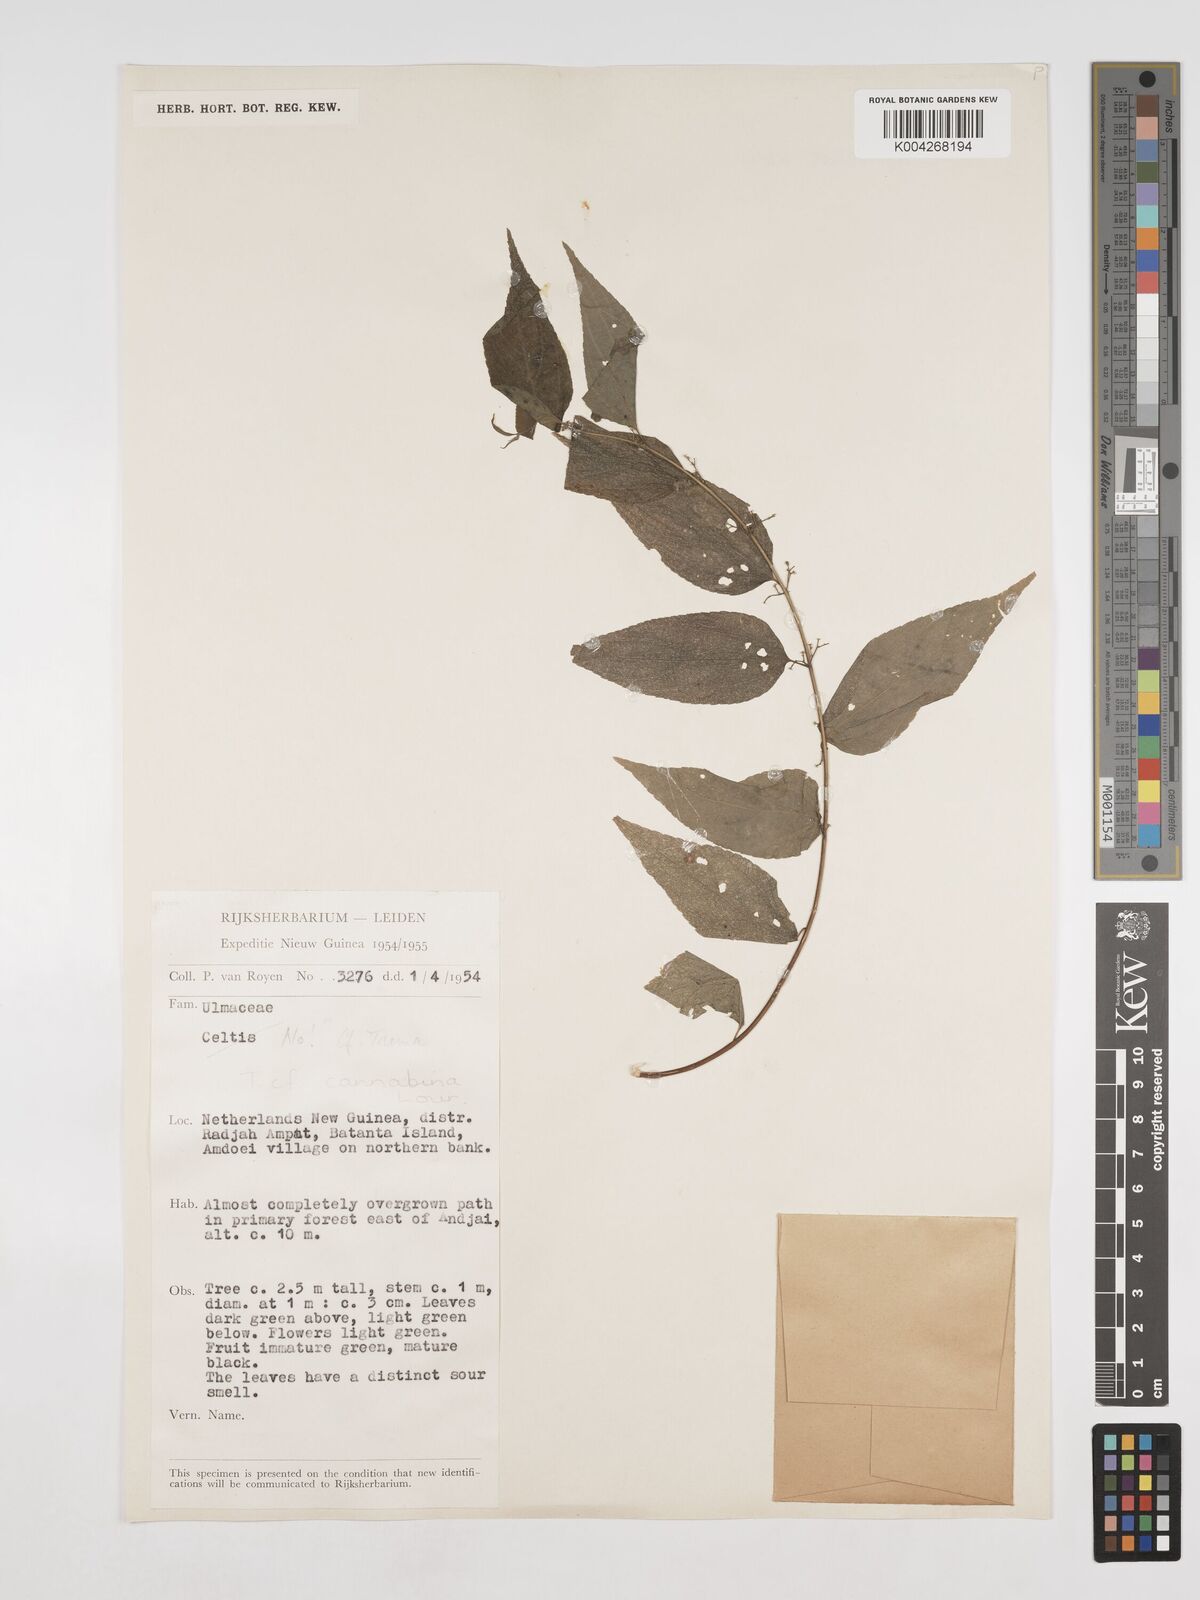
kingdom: Plantae
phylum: Tracheophyta
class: Magnoliopsida
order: Rosales
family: Cannabaceae
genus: Trema
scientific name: Trema
